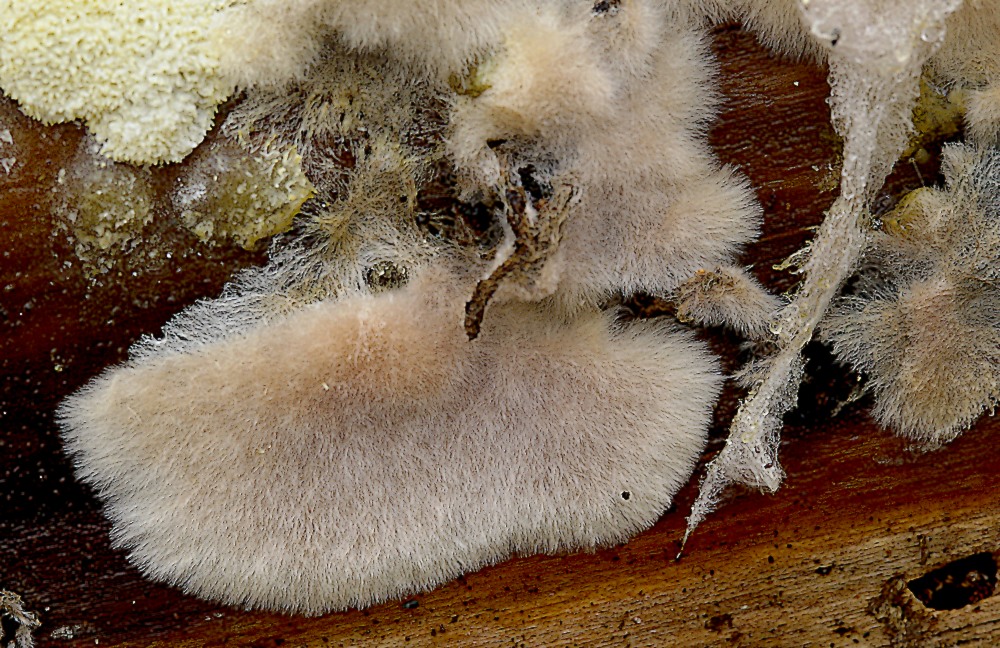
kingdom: Fungi
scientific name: Fungi
